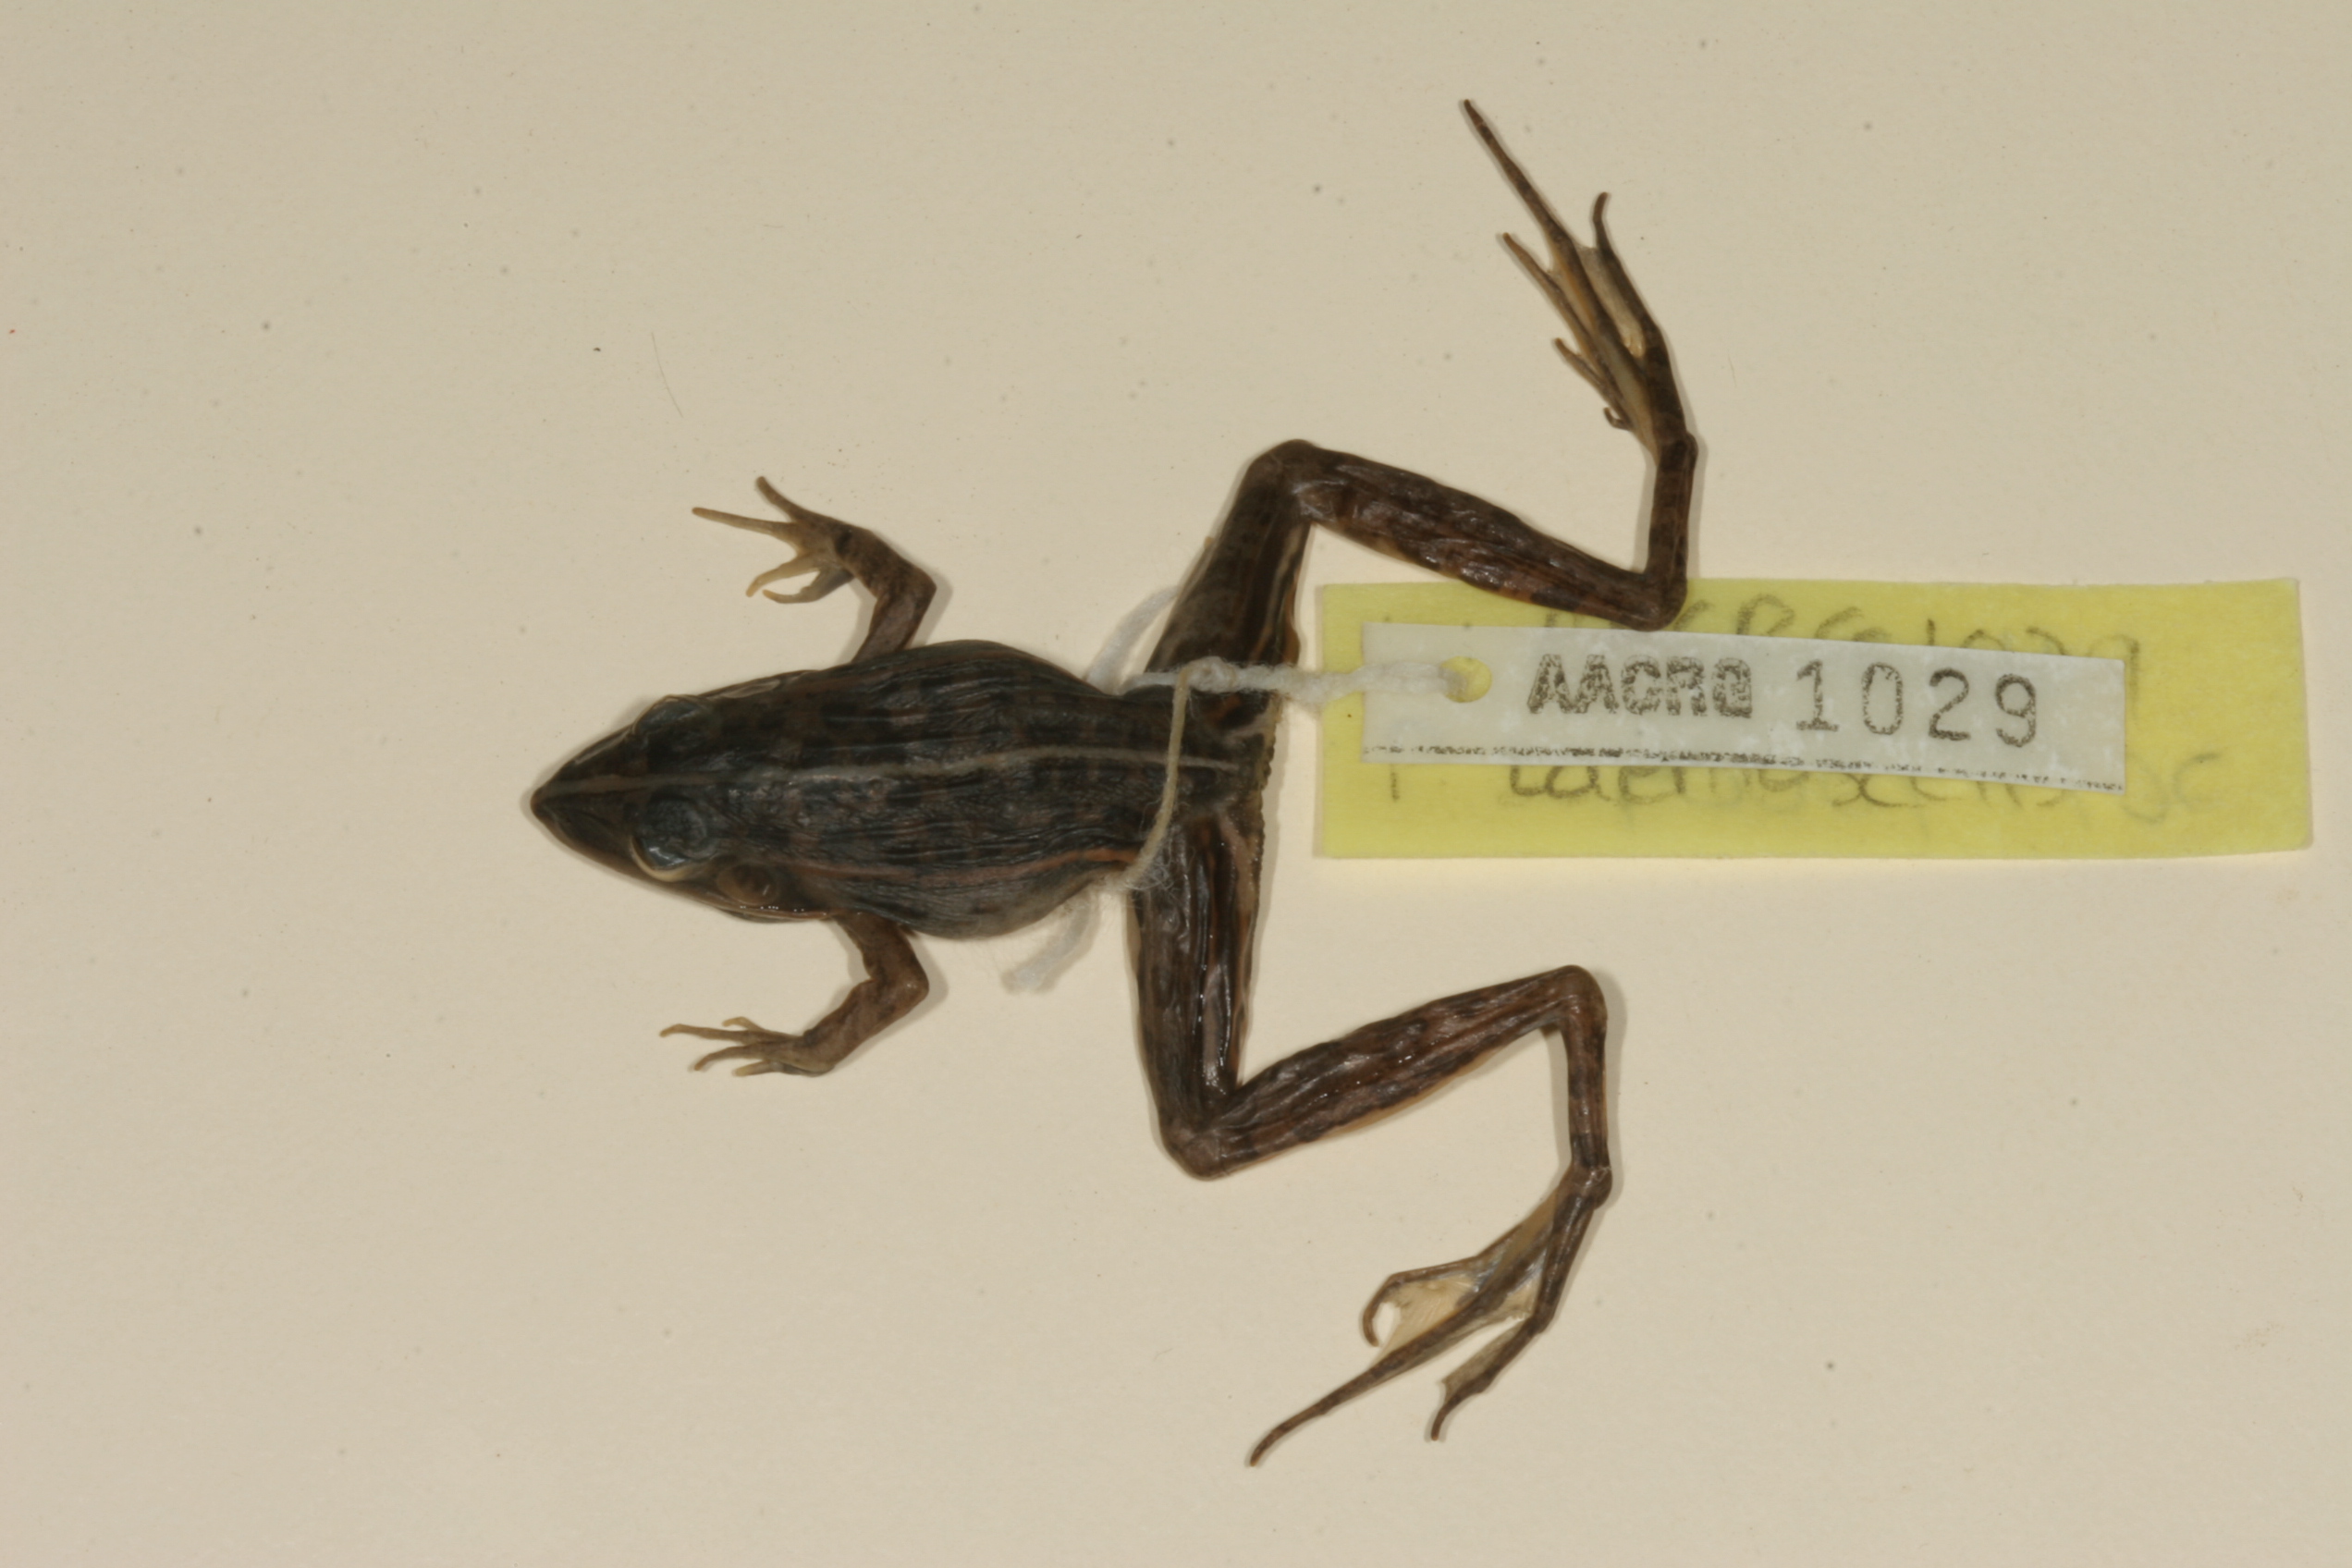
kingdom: Animalia
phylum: Chordata
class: Amphibia
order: Anura
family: Ptychadenidae
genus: Ptychadena
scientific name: Ptychadena taenioscelis
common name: Lukula grassland frog
